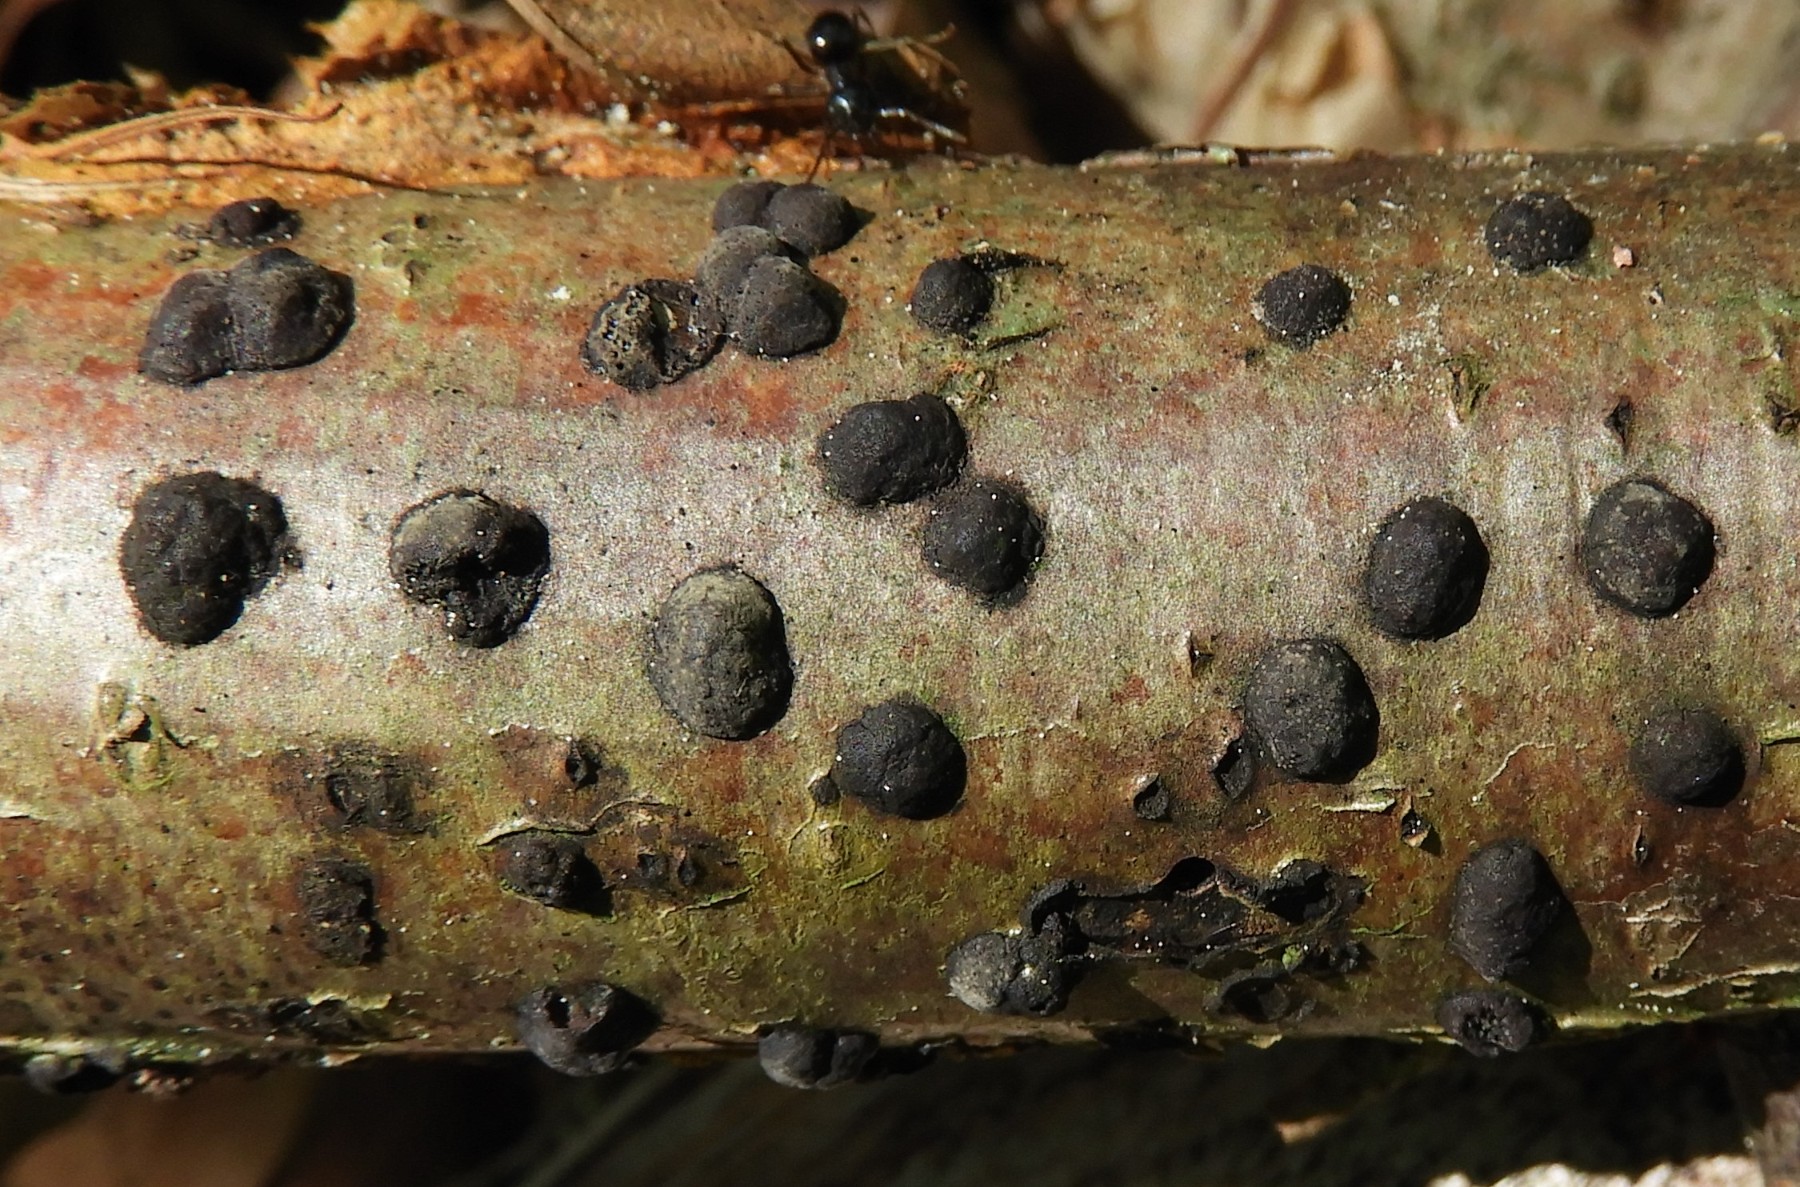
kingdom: Fungi
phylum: Ascomycota
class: Sordariomycetes
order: Xylariales
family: Hypoxylaceae
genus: Hypoxylon
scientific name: Hypoxylon fuscum
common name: kegleformet kulbær
